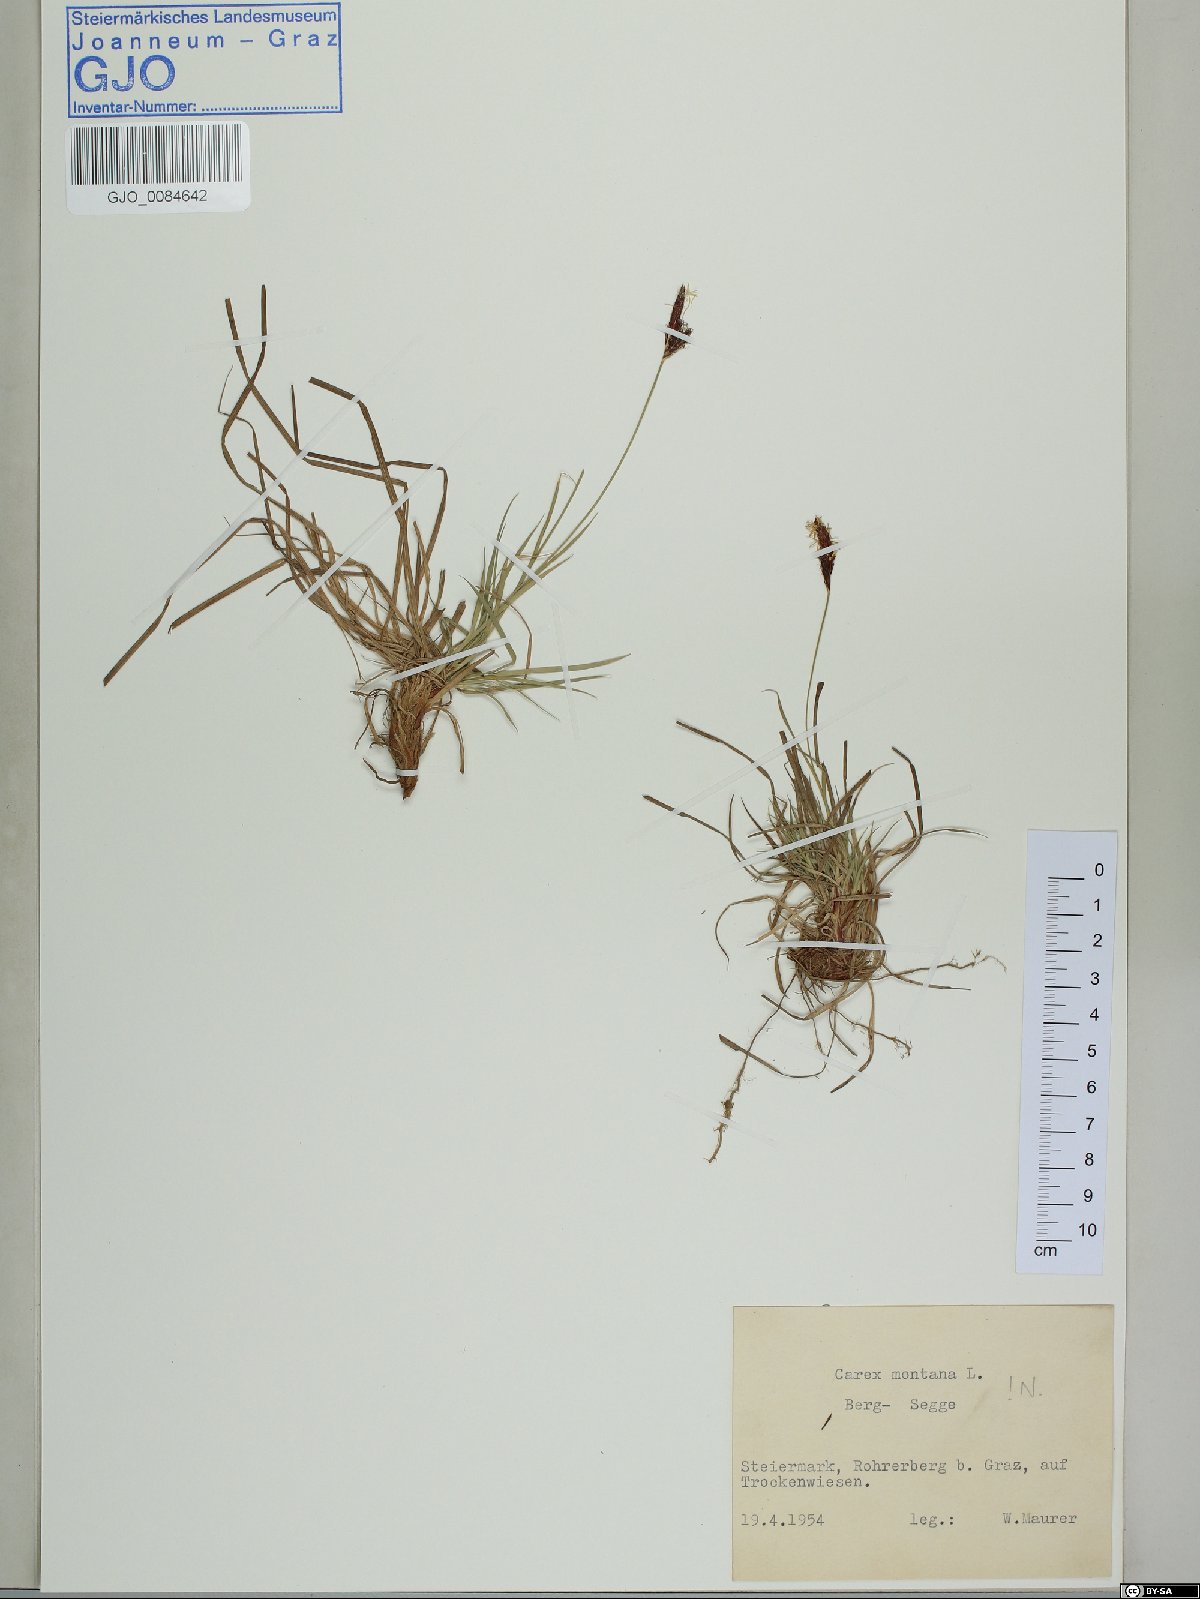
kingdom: Plantae
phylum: Tracheophyta
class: Liliopsida
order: Poales
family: Cyperaceae
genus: Carex
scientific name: Carex montana
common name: Soft-leaved sedge
